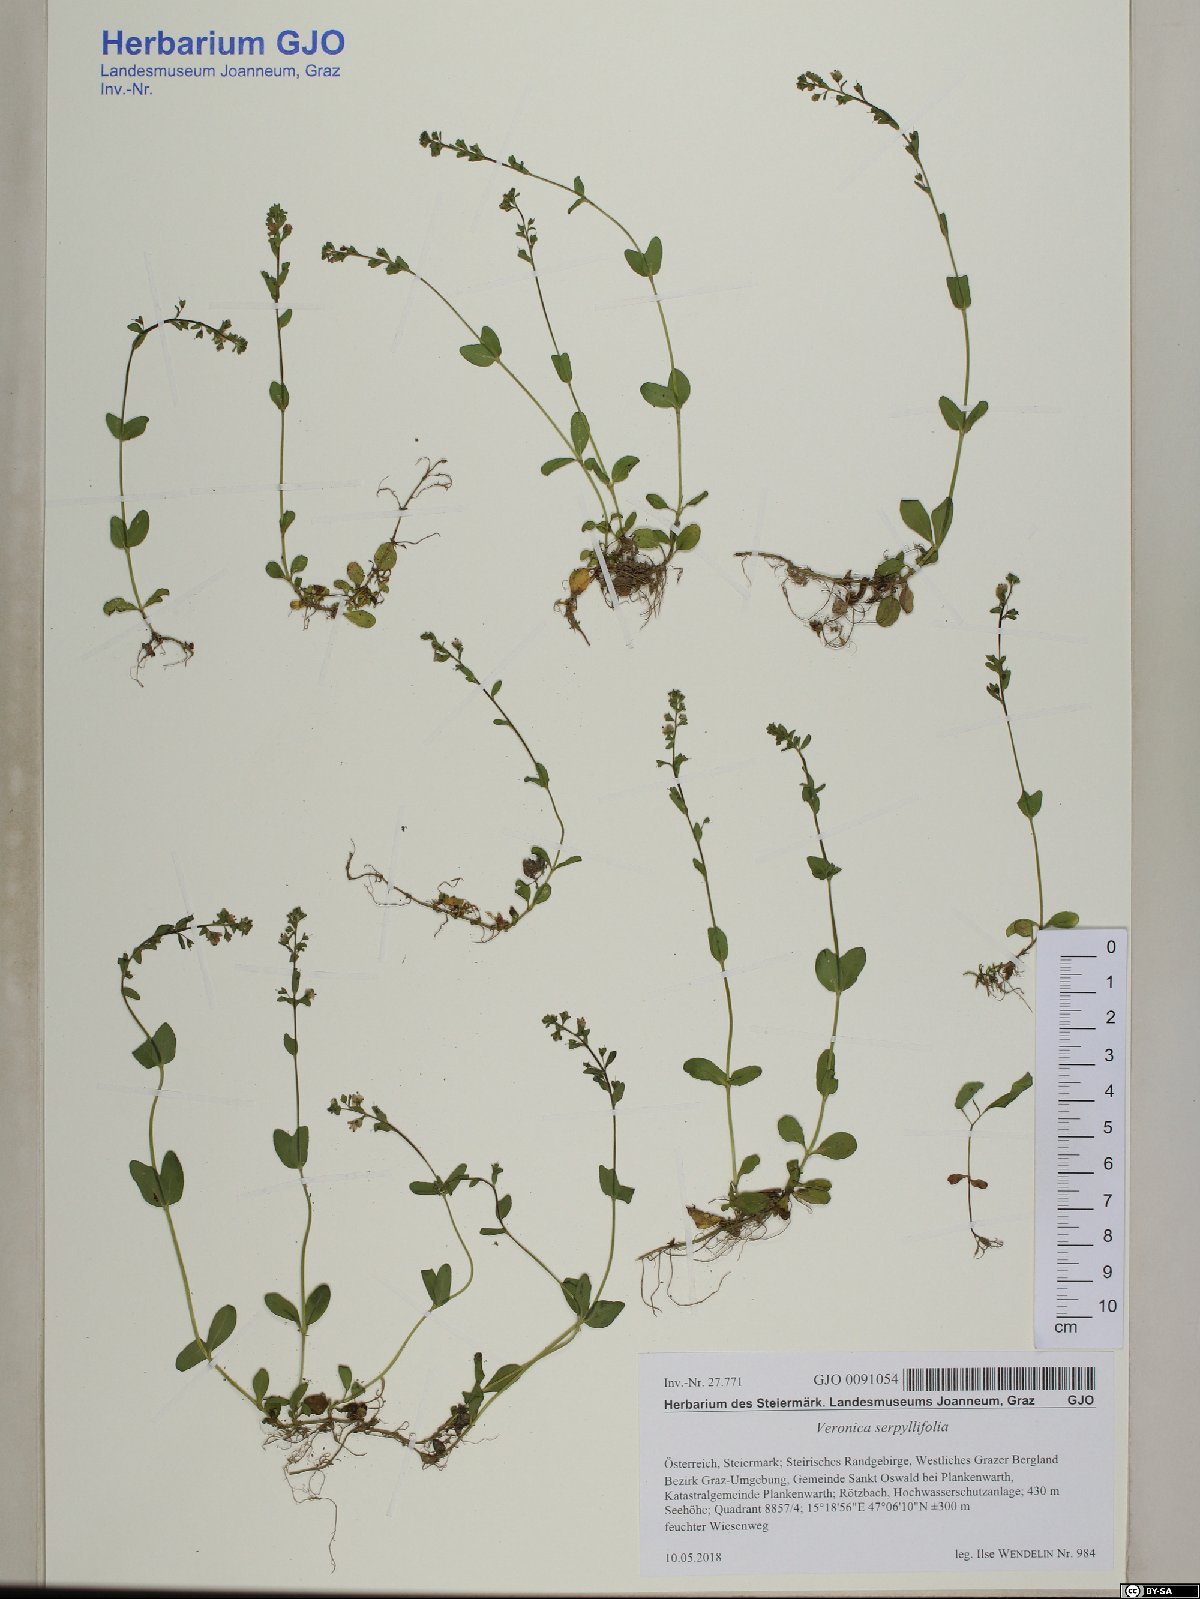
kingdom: Plantae
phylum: Tracheophyta
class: Magnoliopsida
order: Lamiales
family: Plantaginaceae
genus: Veronica
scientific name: Veronica serpyllifolia
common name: Thyme-leaved speedwell
